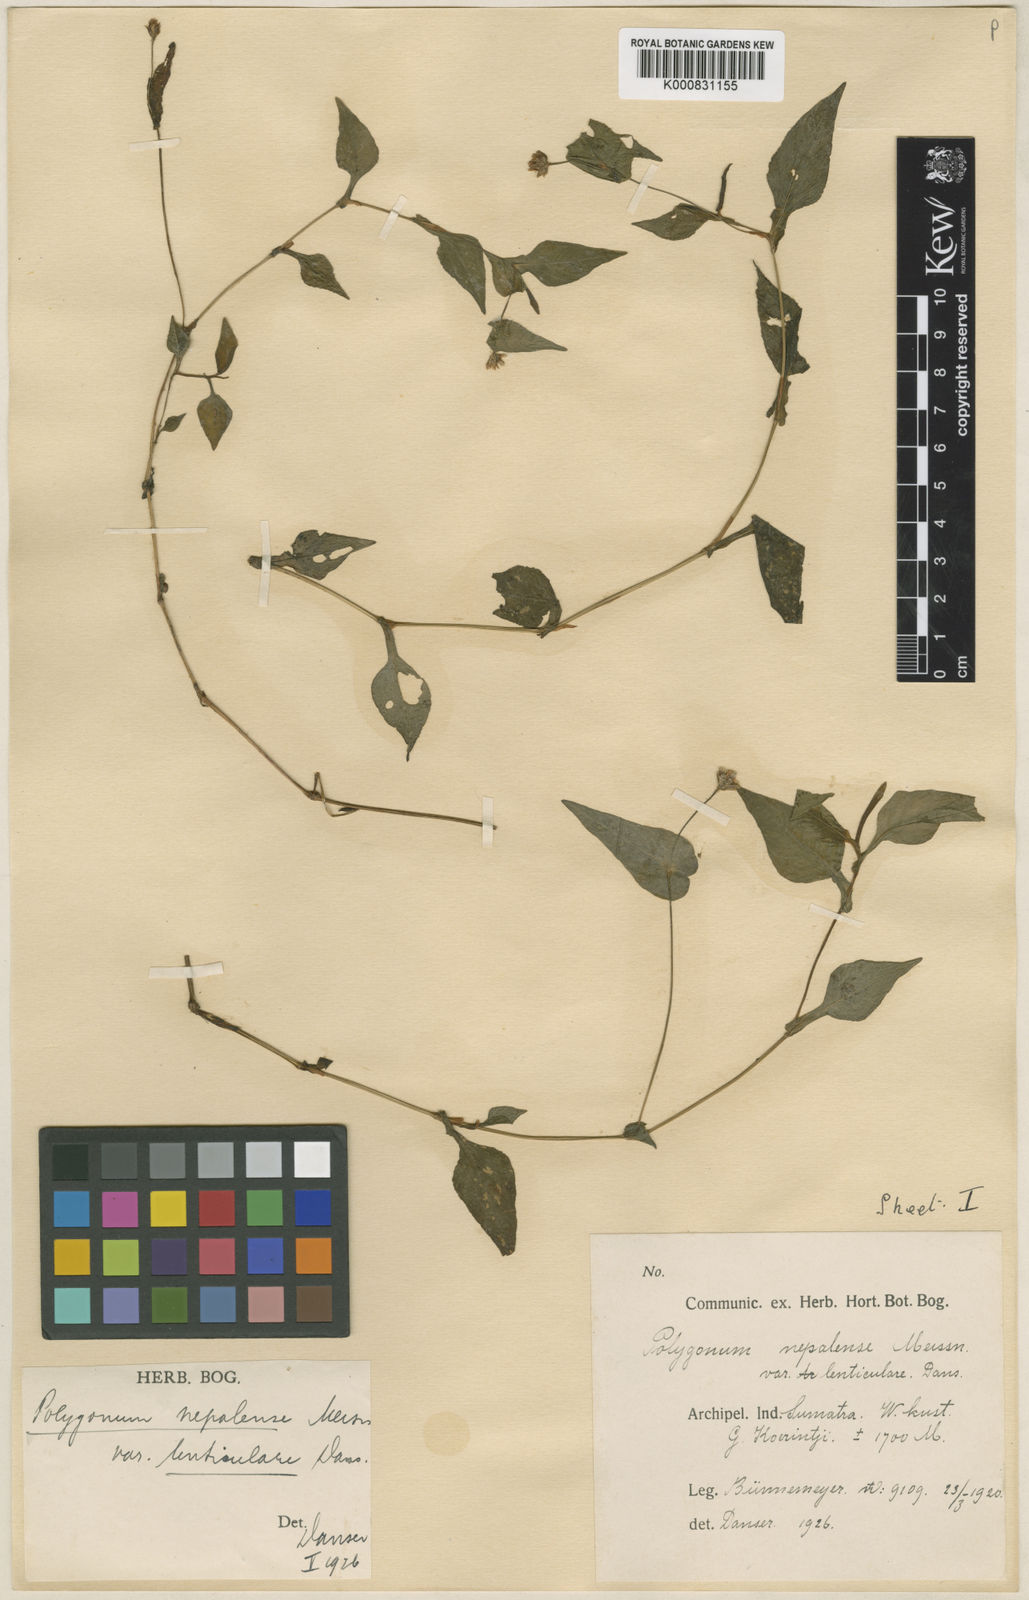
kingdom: Plantae
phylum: Tracheophyta
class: Magnoliopsida
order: Caryophyllales
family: Polygonaceae
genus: Persicaria
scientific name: Persicaria nepalensis
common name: Nepal persicaria
